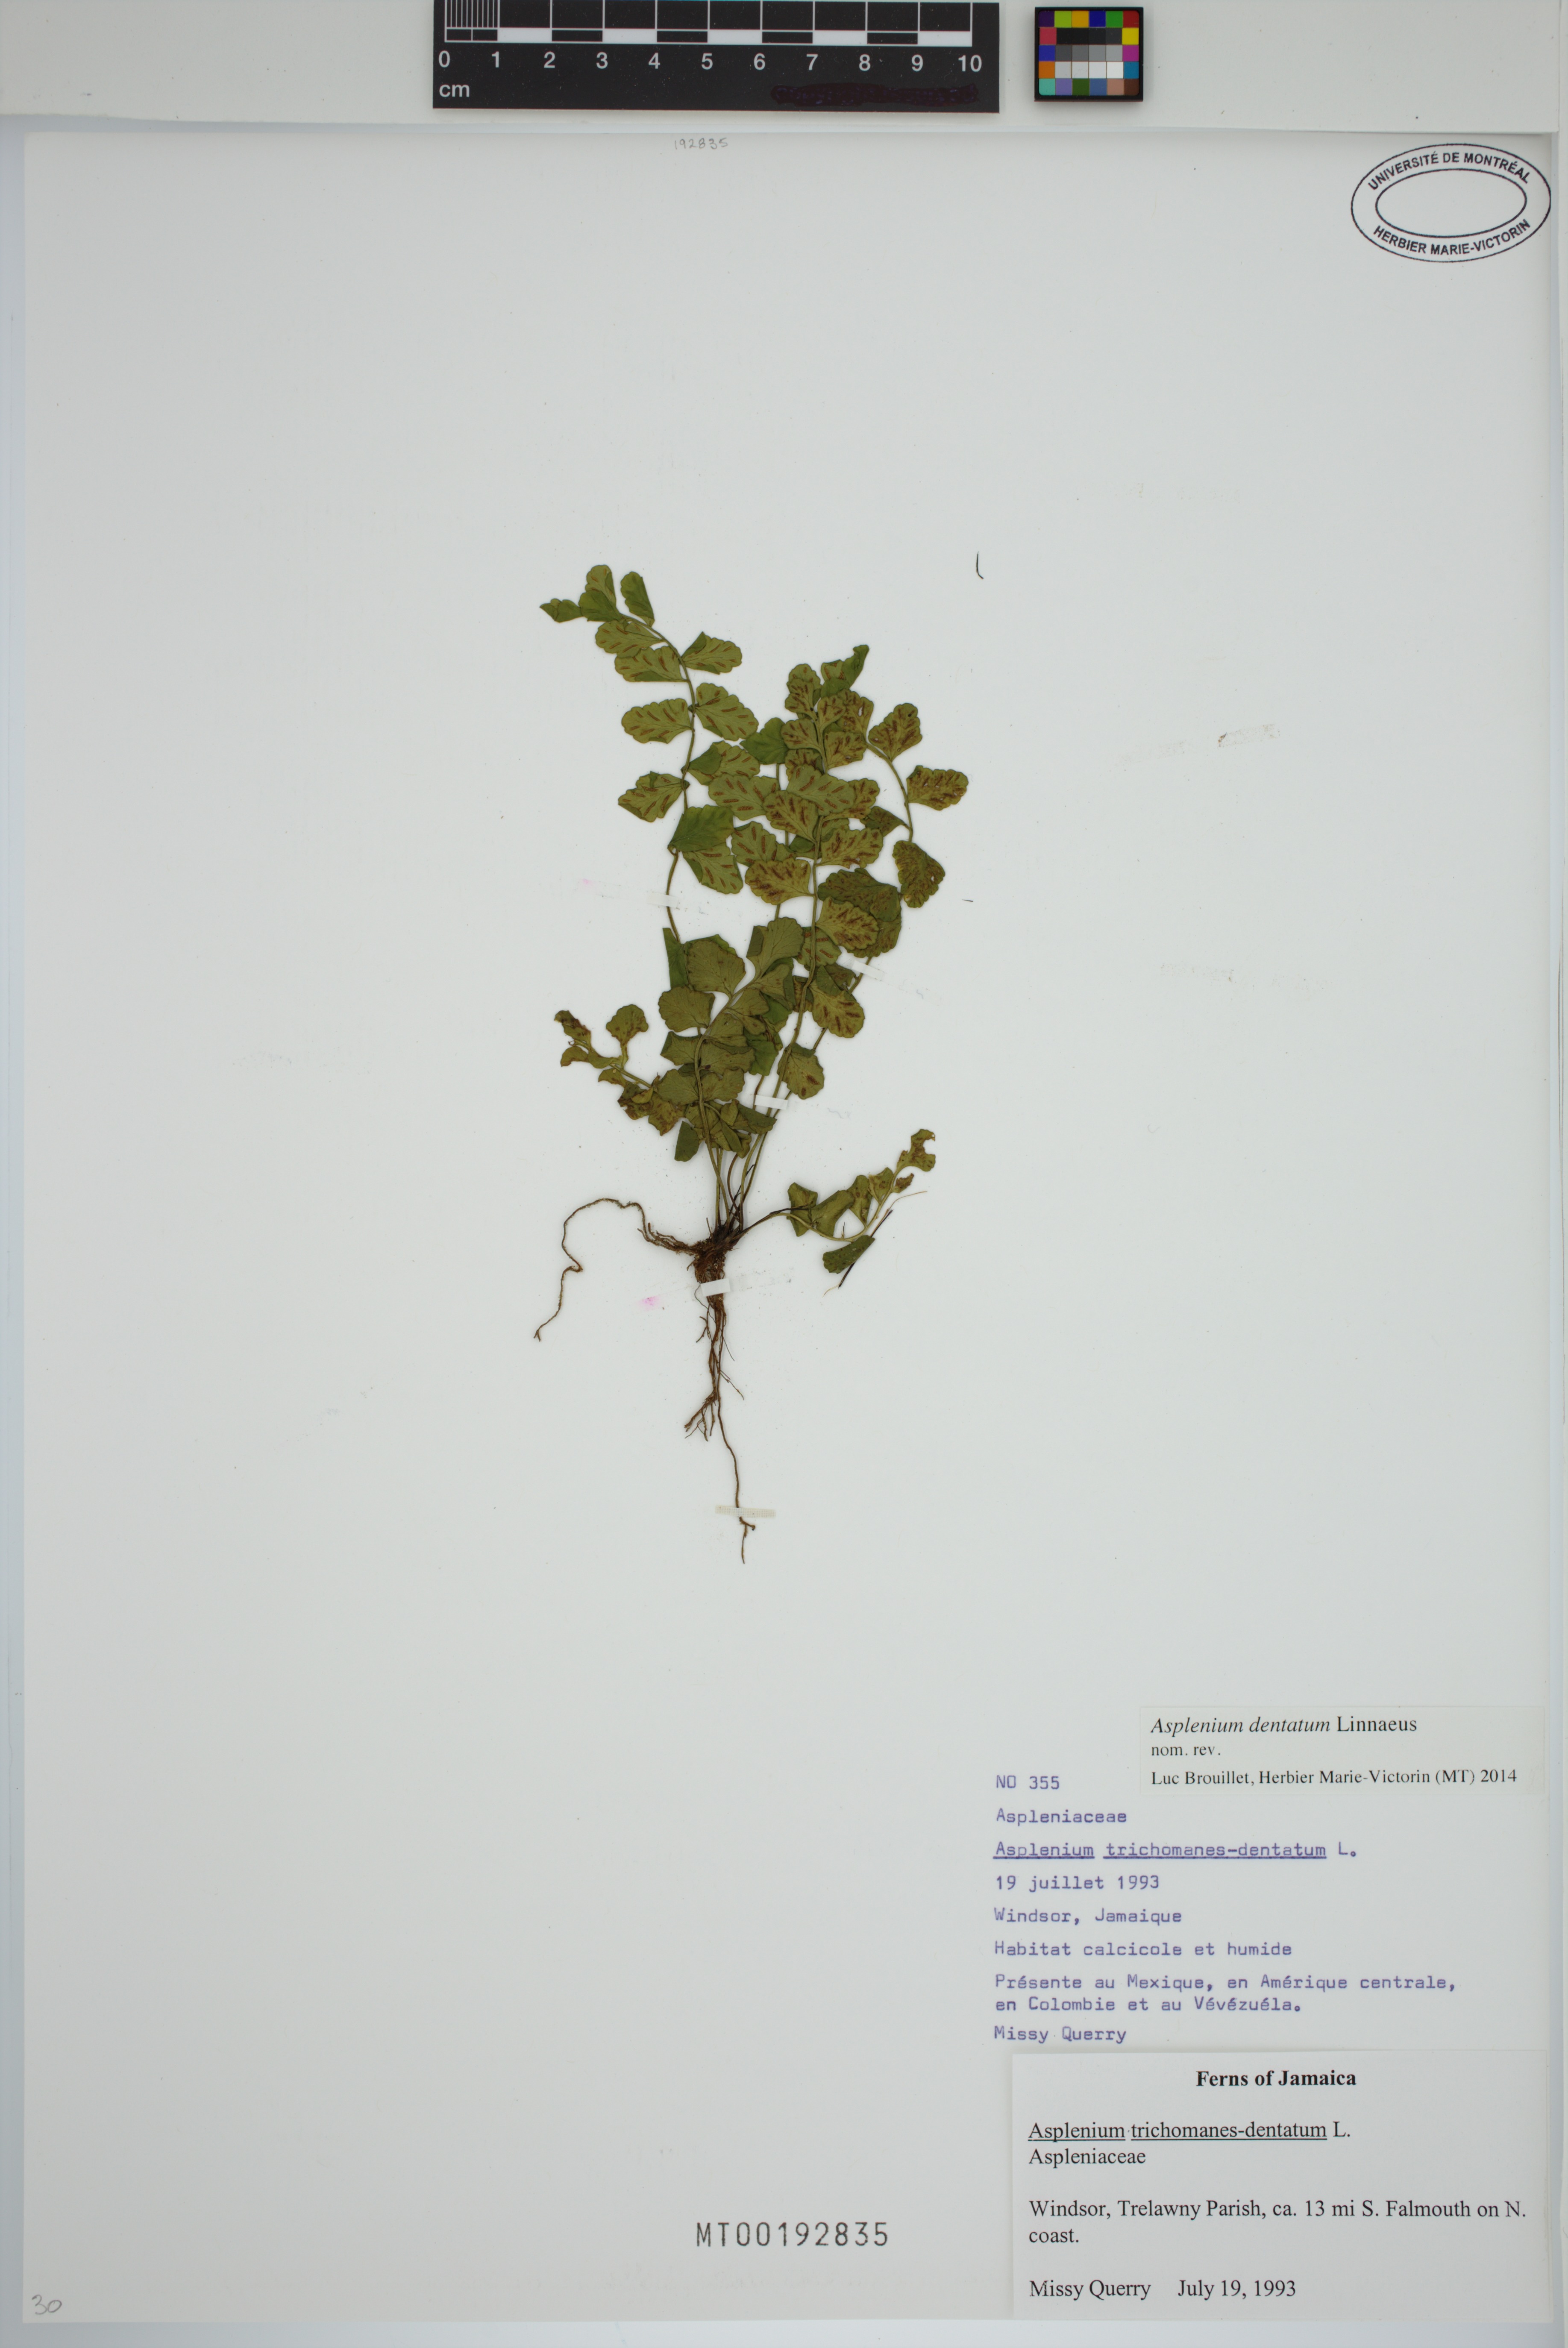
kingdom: Plantae
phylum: Tracheophyta
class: Polypodiopsida
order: Polypodiales
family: Aspleniaceae
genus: Asplenium
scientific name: Asplenium dentatum
